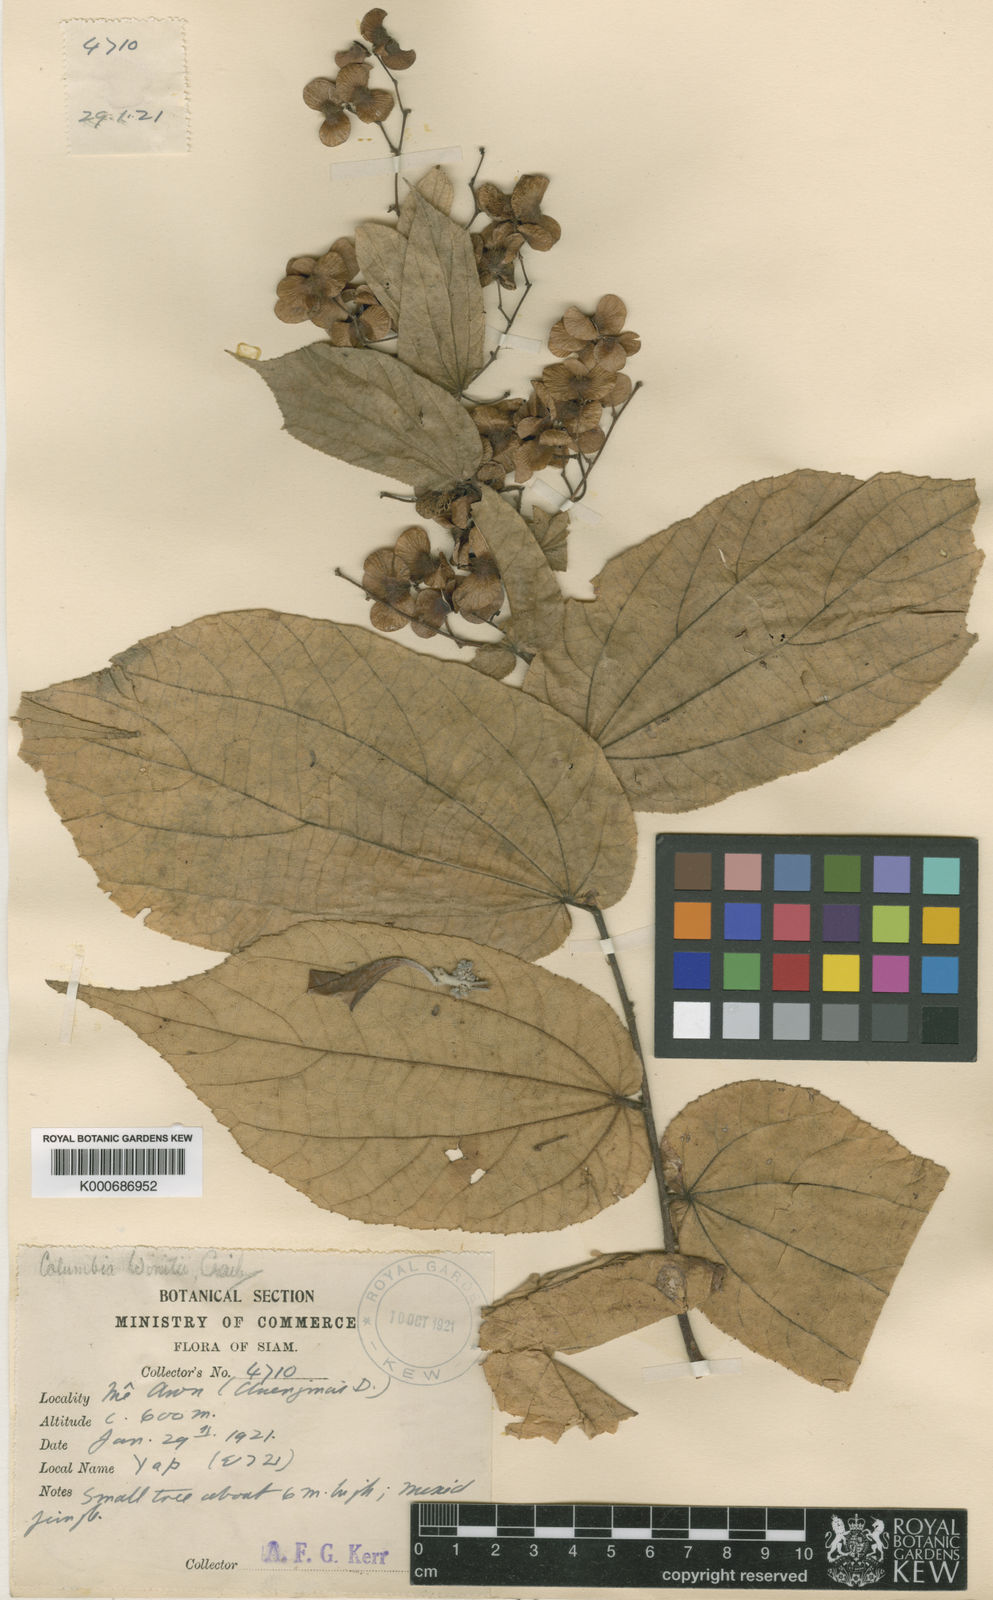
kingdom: Plantae
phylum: Tracheophyta
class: Magnoliopsida
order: Malvales
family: Malvaceae
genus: Colona
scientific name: Colona winitii
